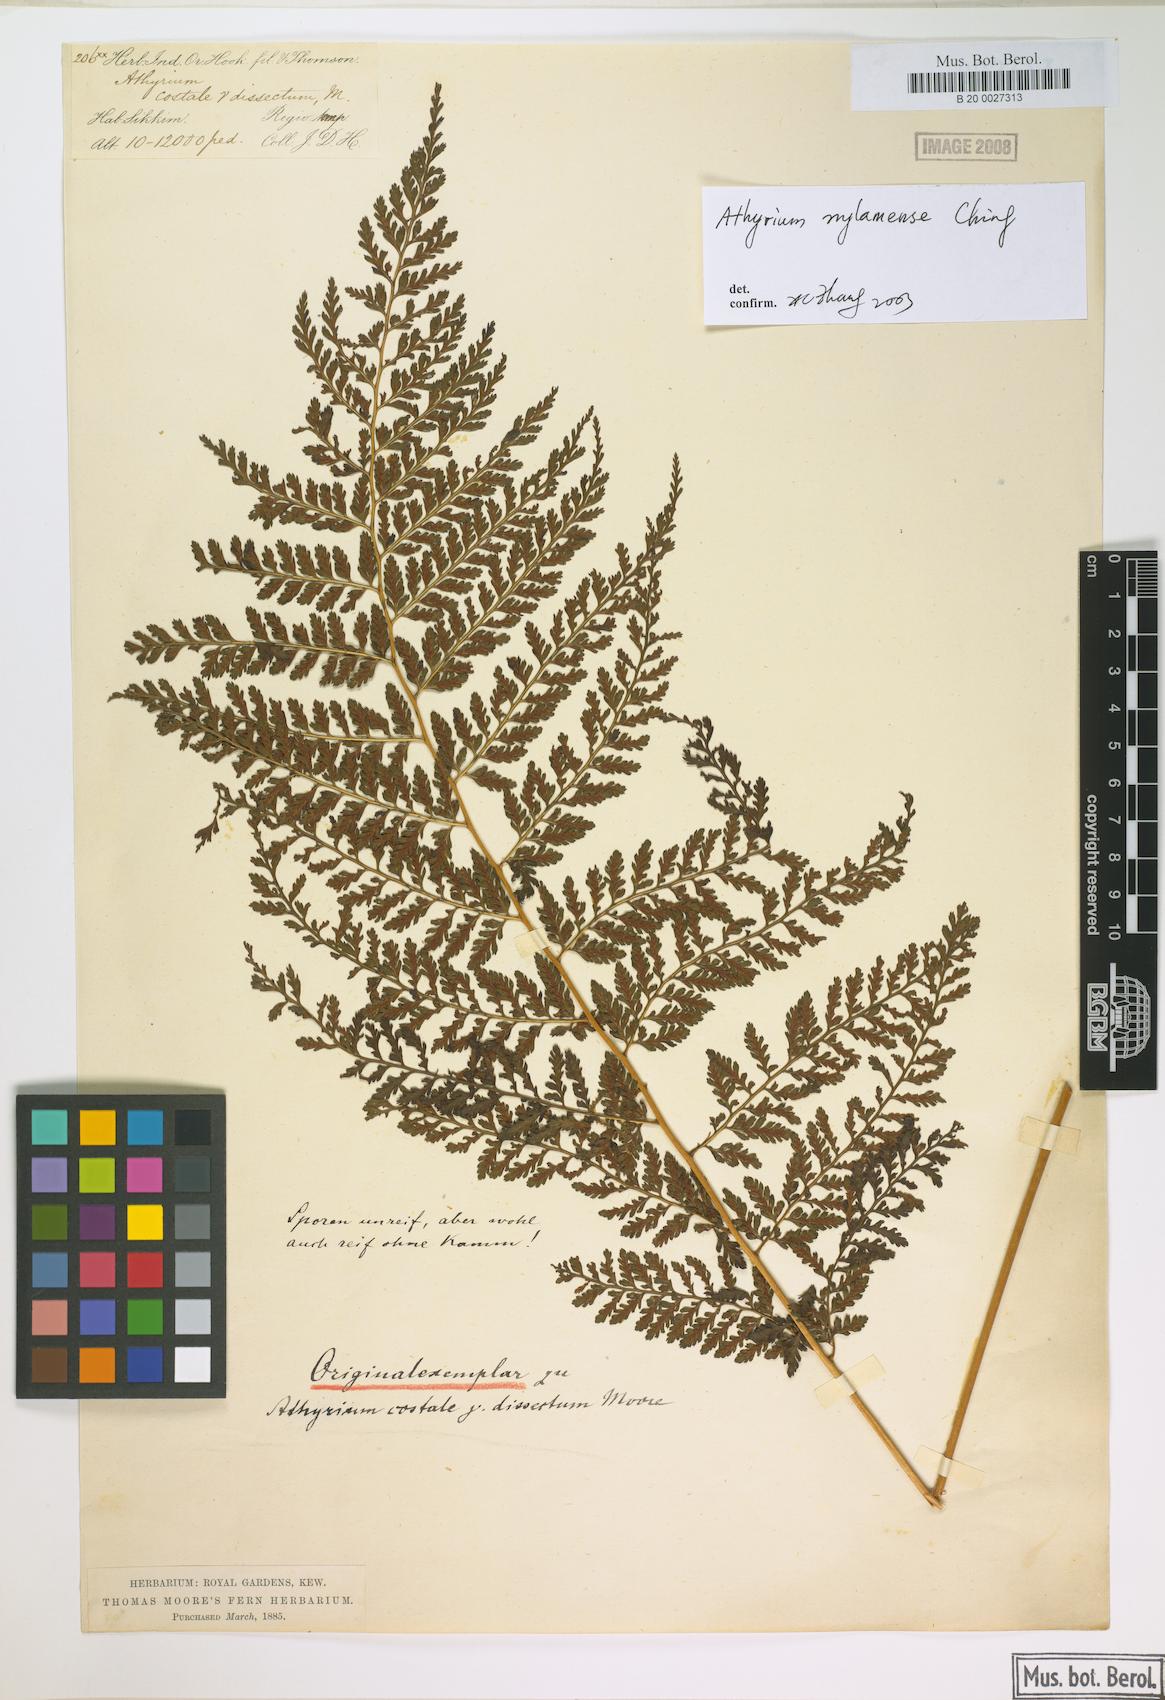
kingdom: Plantae
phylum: Tracheophyta
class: Polypodiopsida
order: Polypodiales
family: Athyriaceae
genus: Athyrium
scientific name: Athyrium
